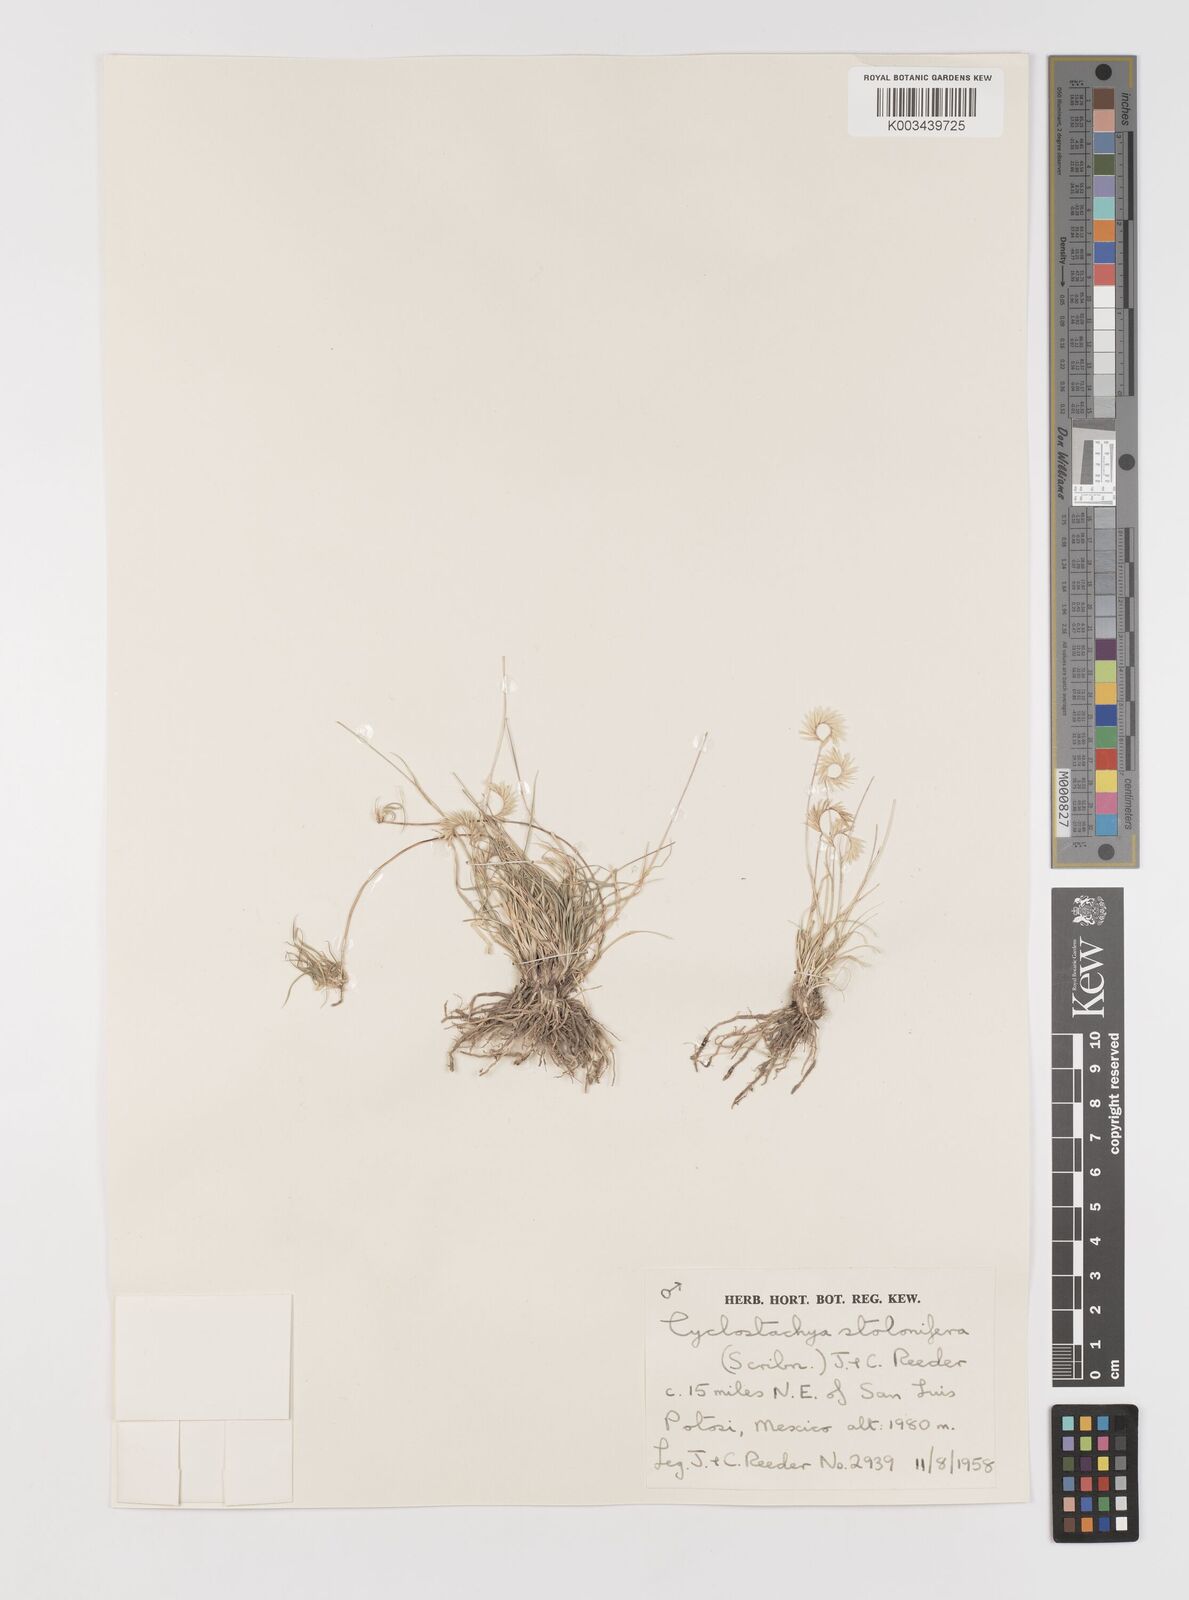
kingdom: Plantae
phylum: Tracheophyta
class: Liliopsida
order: Poales
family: Poaceae
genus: Bouteloua
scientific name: Bouteloua stolonifera
